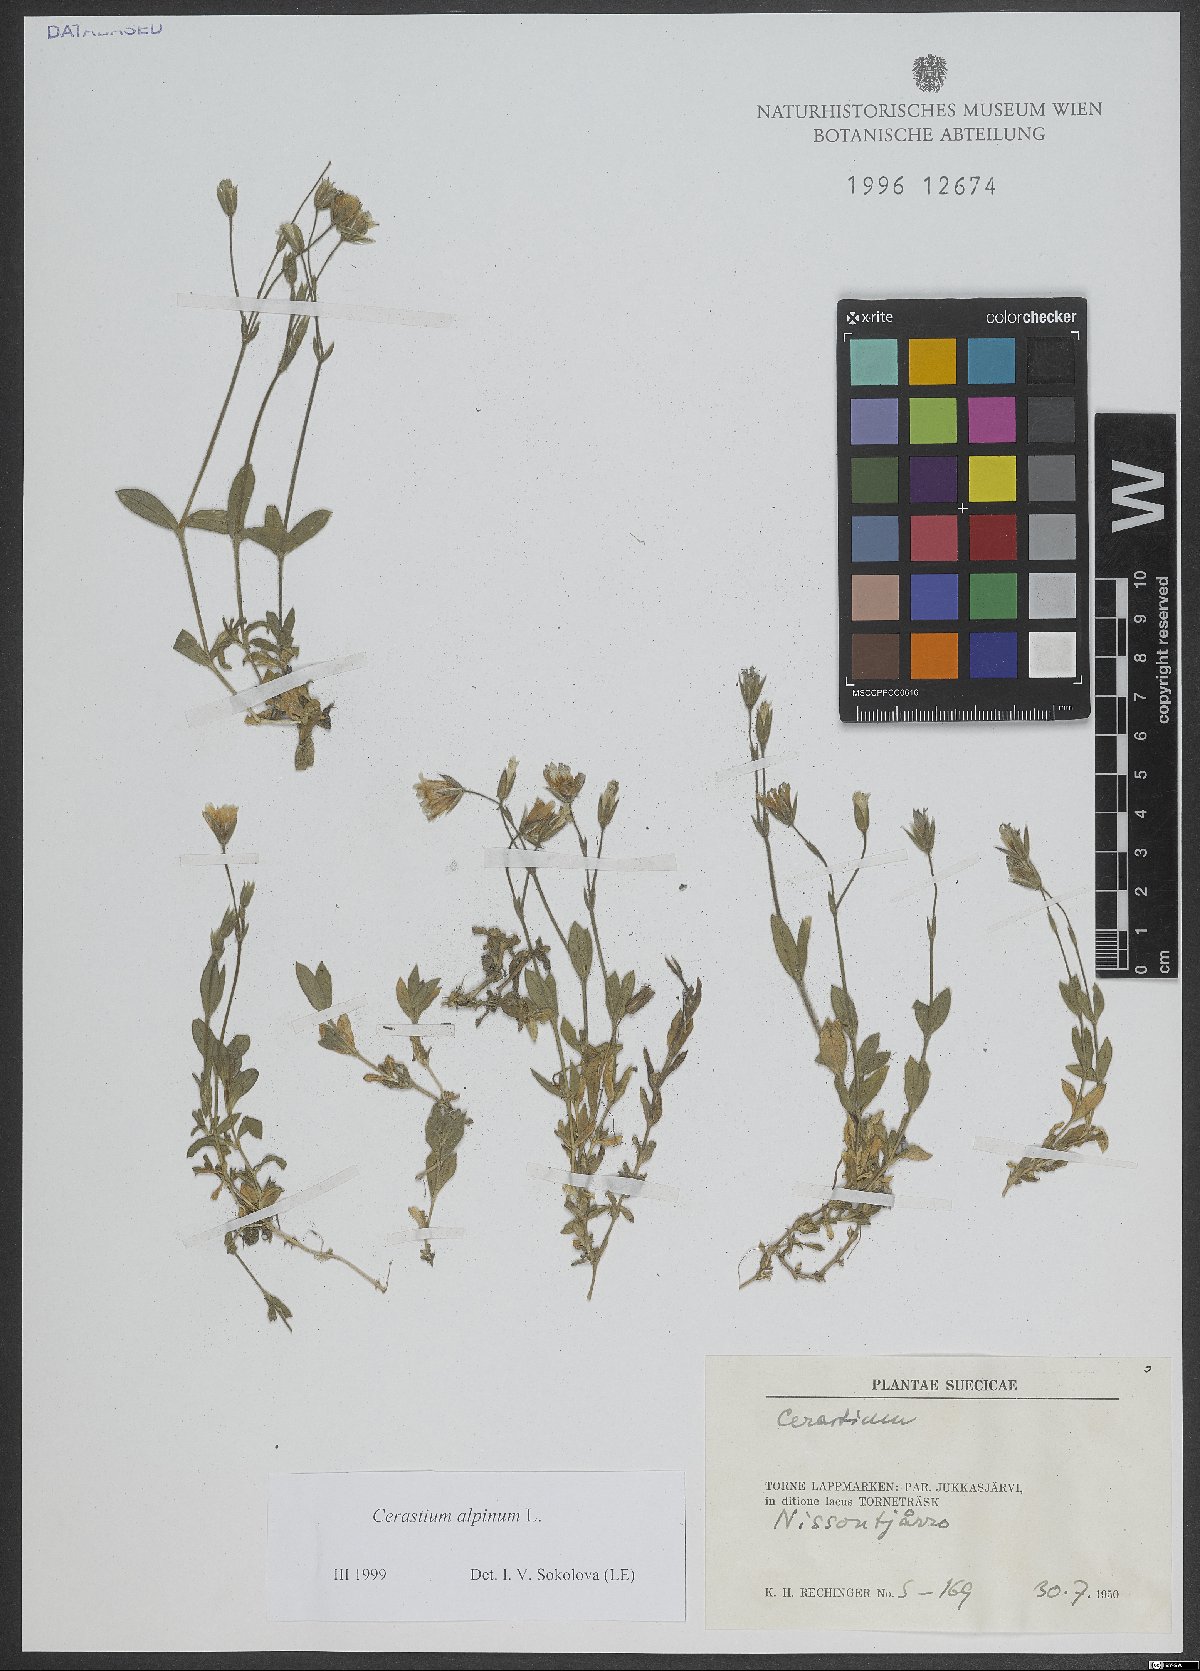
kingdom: Plantae
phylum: Tracheophyta
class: Magnoliopsida
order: Caryophyllales
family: Caryophyllaceae
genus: Cerastium
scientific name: Cerastium alpinum
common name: Alpine mouse-ear
